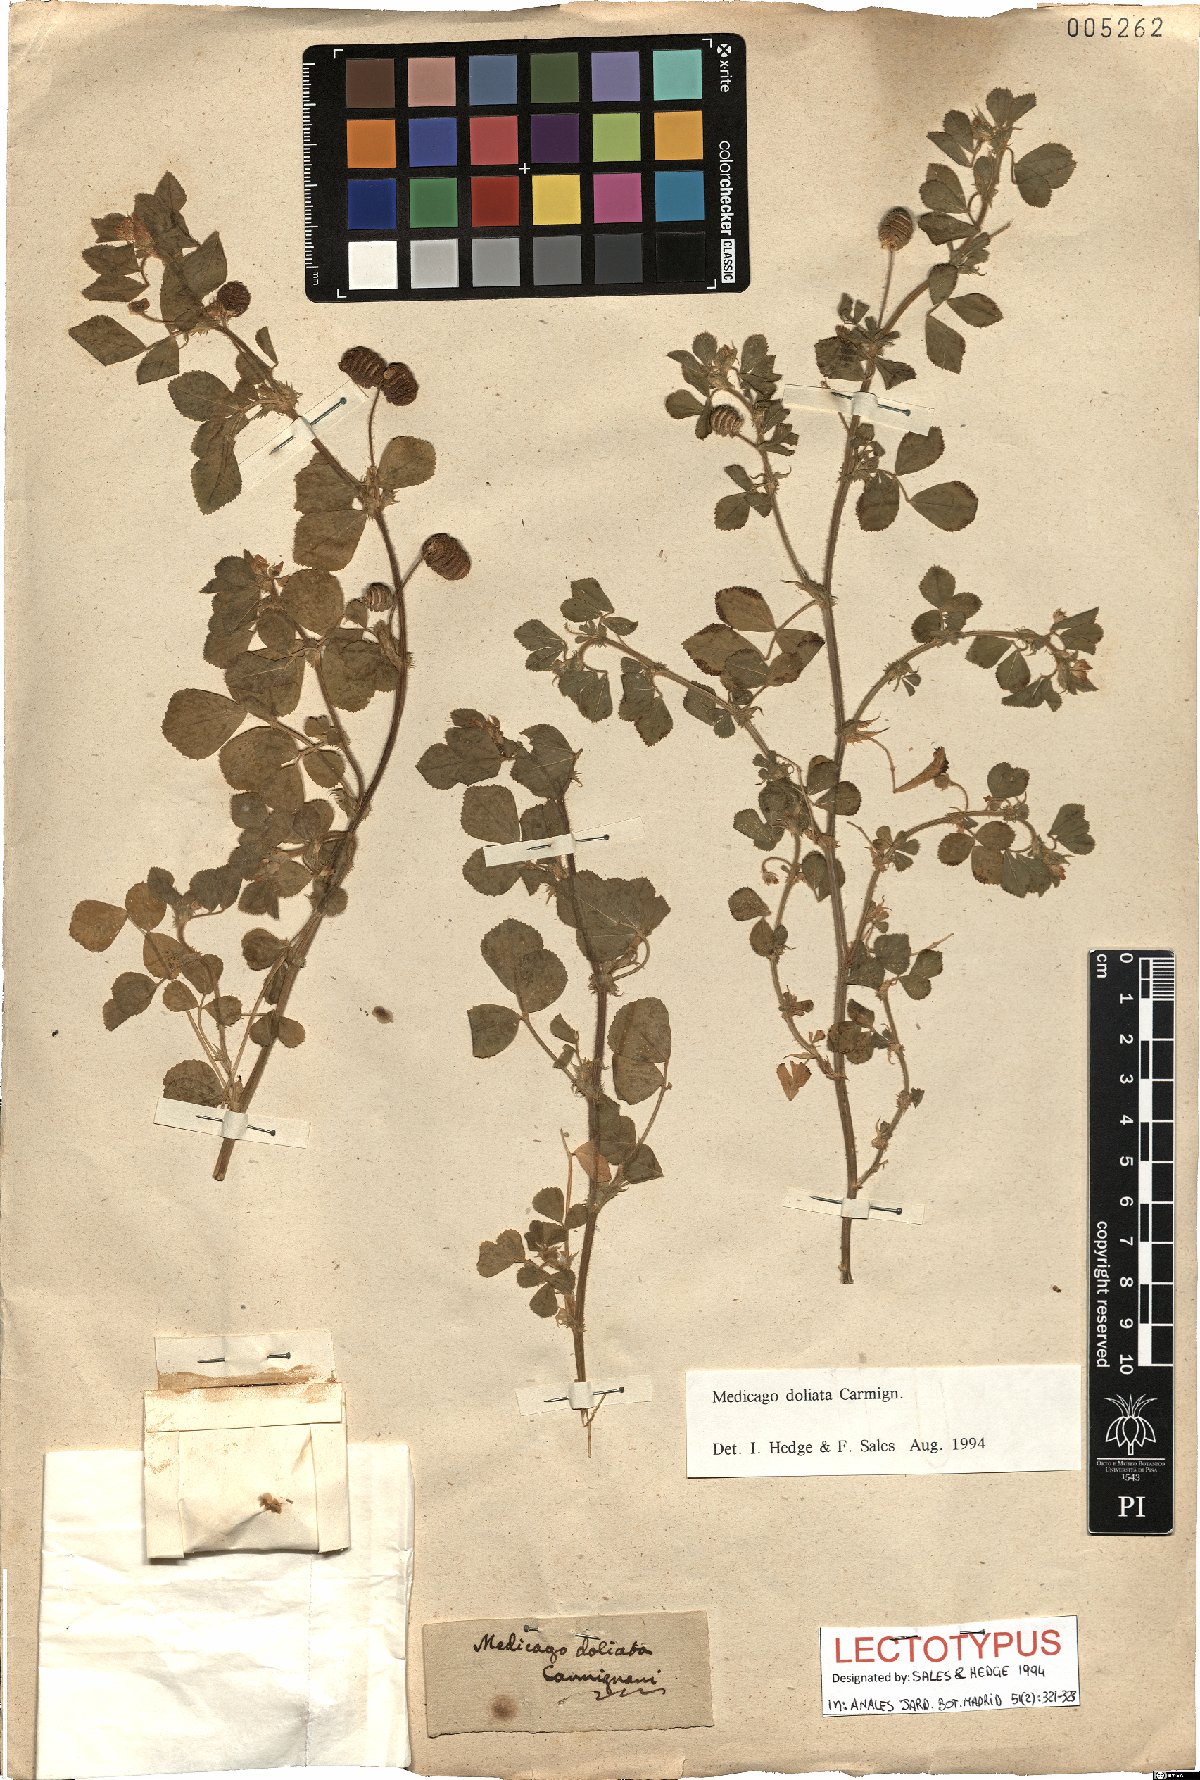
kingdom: Plantae
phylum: Tracheophyta
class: Magnoliopsida
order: Fabales
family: Fabaceae
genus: Medicago
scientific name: Medicago doliata
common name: Keg medic
